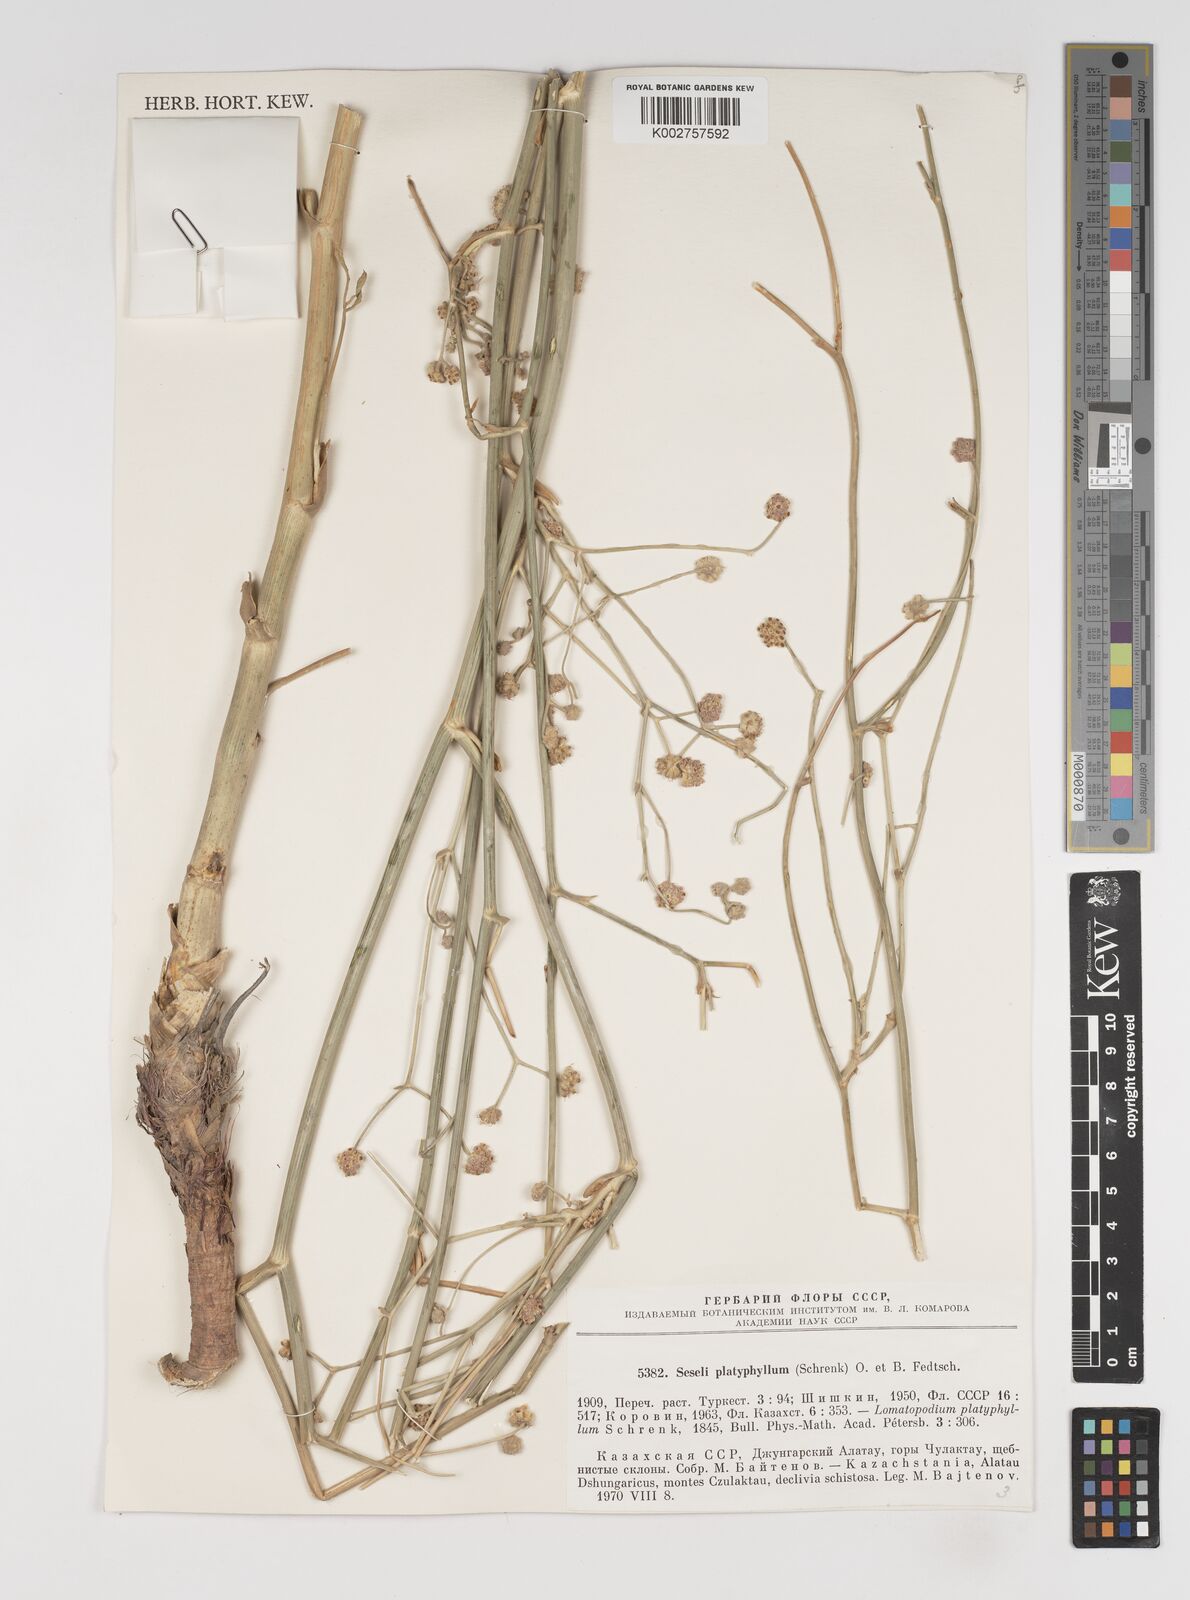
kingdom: Plantae
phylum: Tracheophyta
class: Magnoliopsida
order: Apiales
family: Apiaceae
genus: Seseli
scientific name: Seseli
